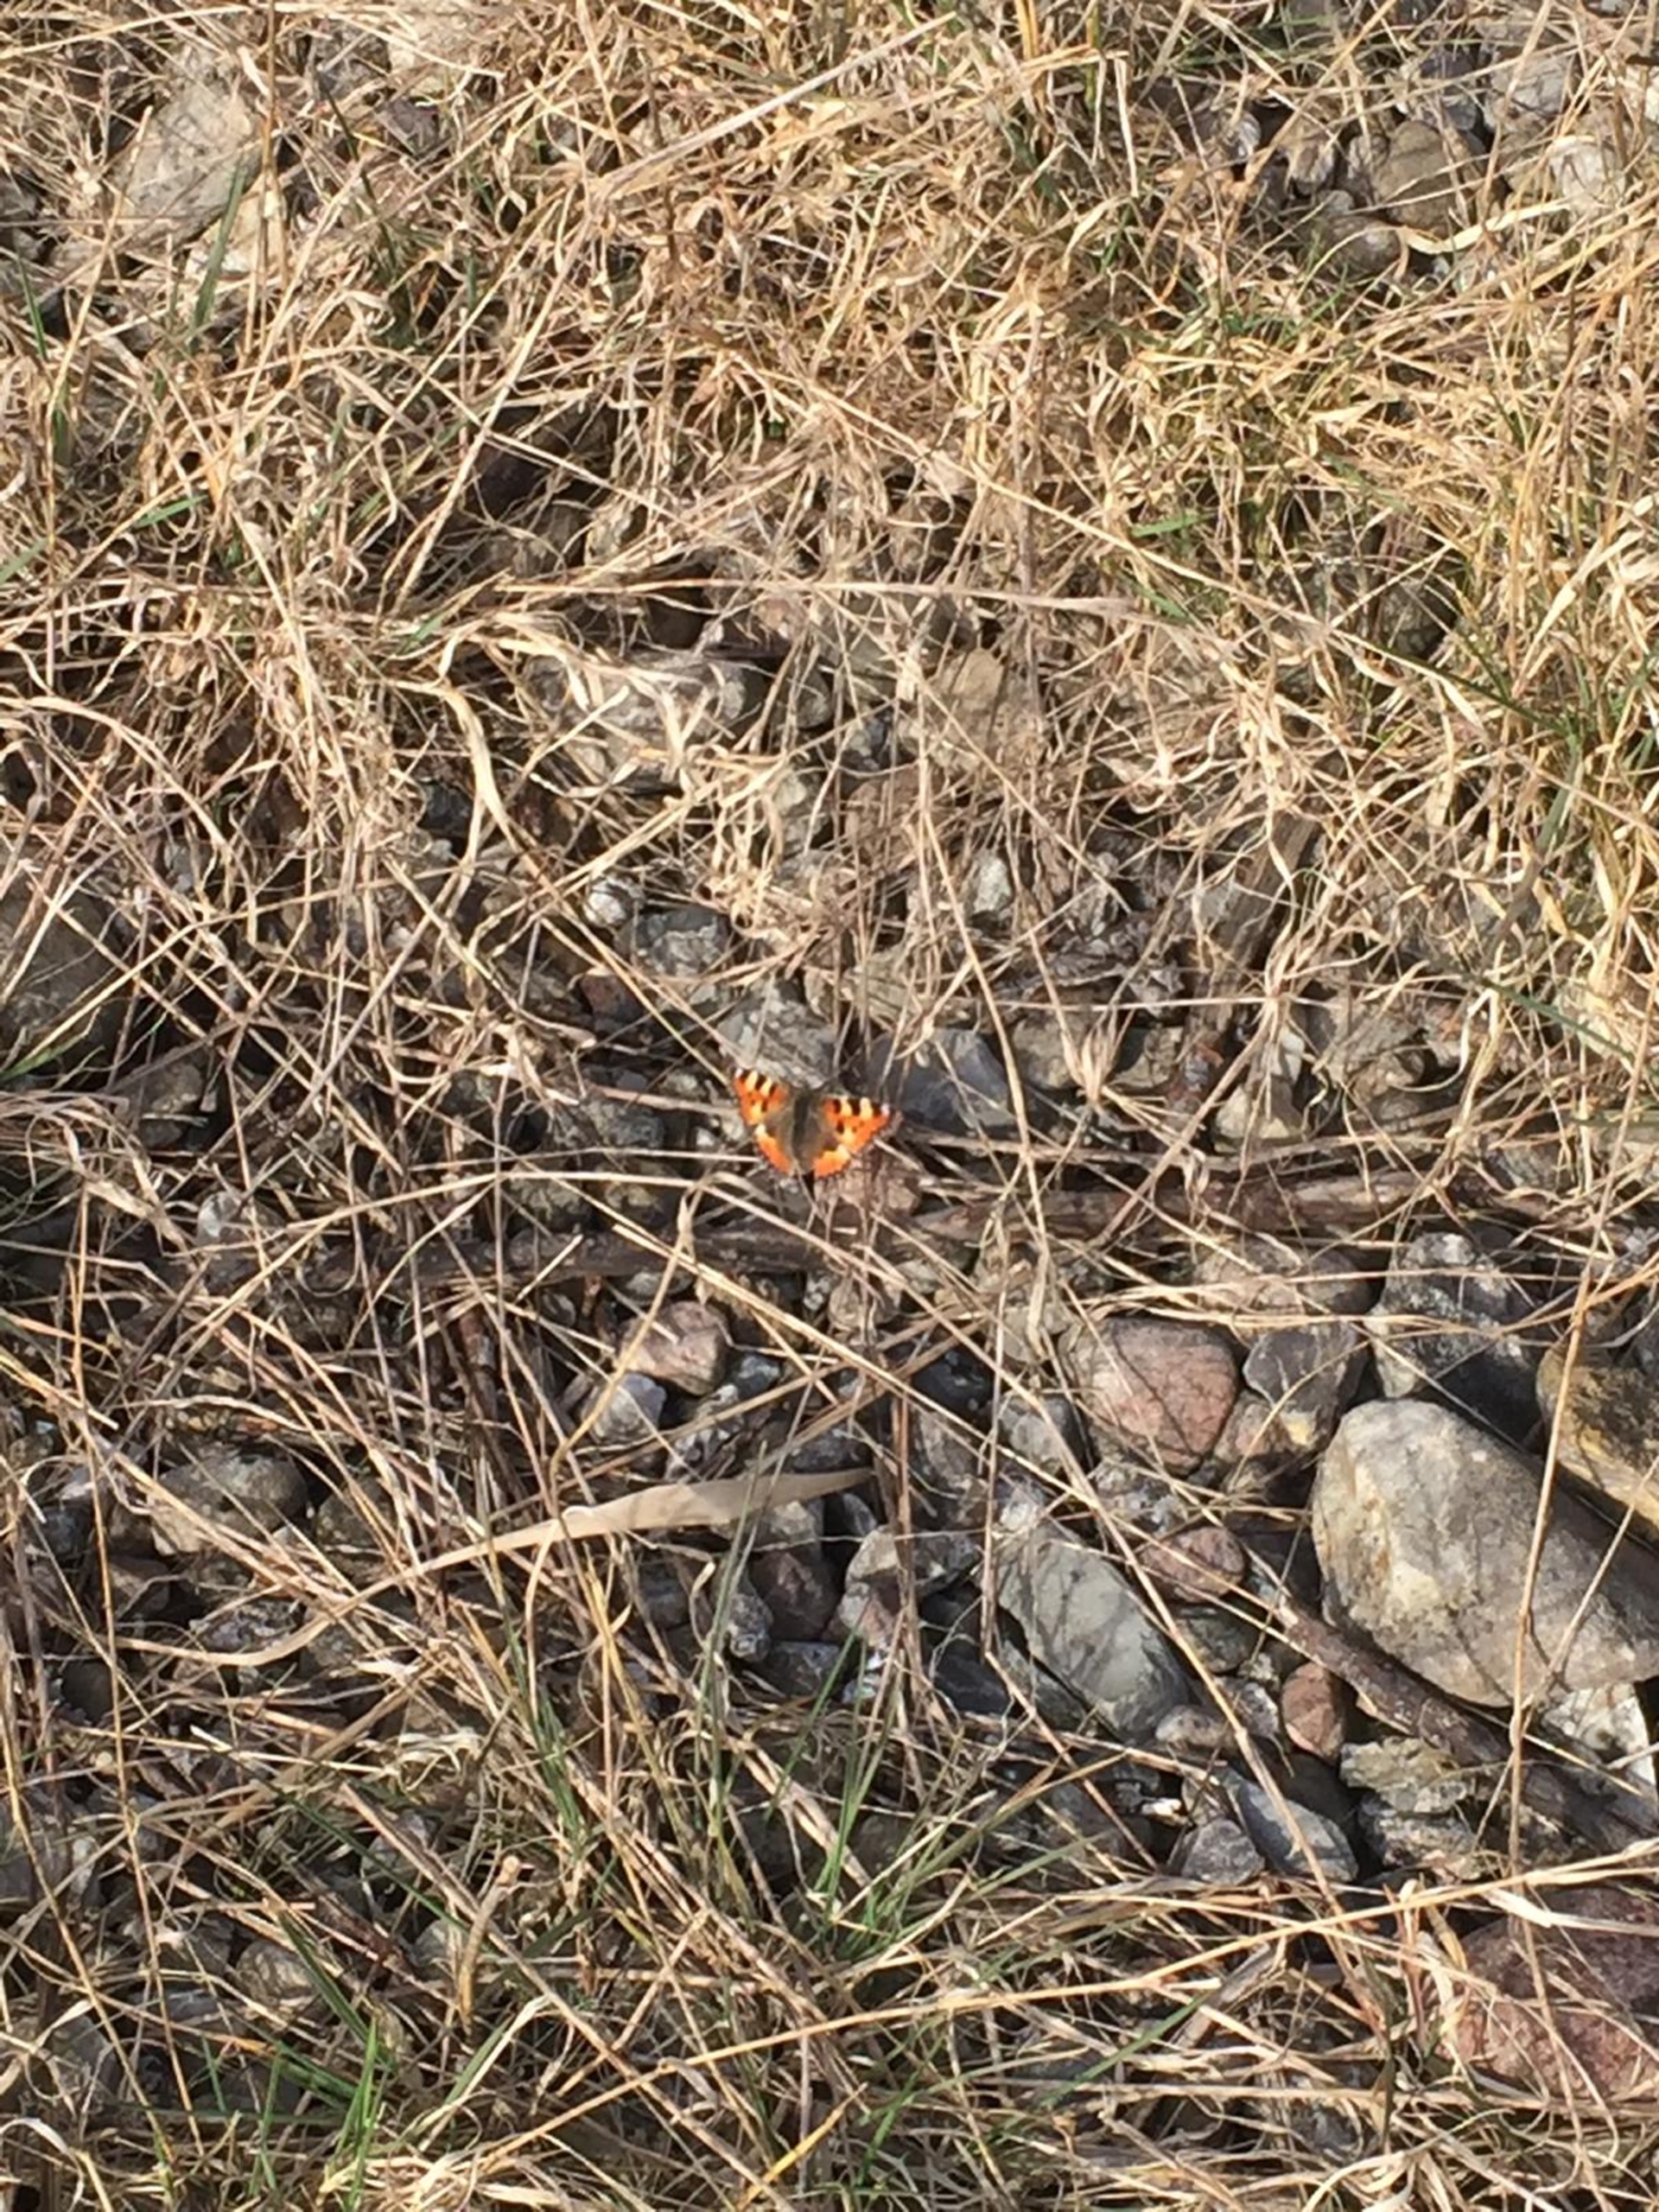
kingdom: Animalia
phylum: Arthropoda
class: Insecta
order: Lepidoptera
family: Nymphalidae
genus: Aglais
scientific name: Aglais urticae
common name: Nældens takvinge
